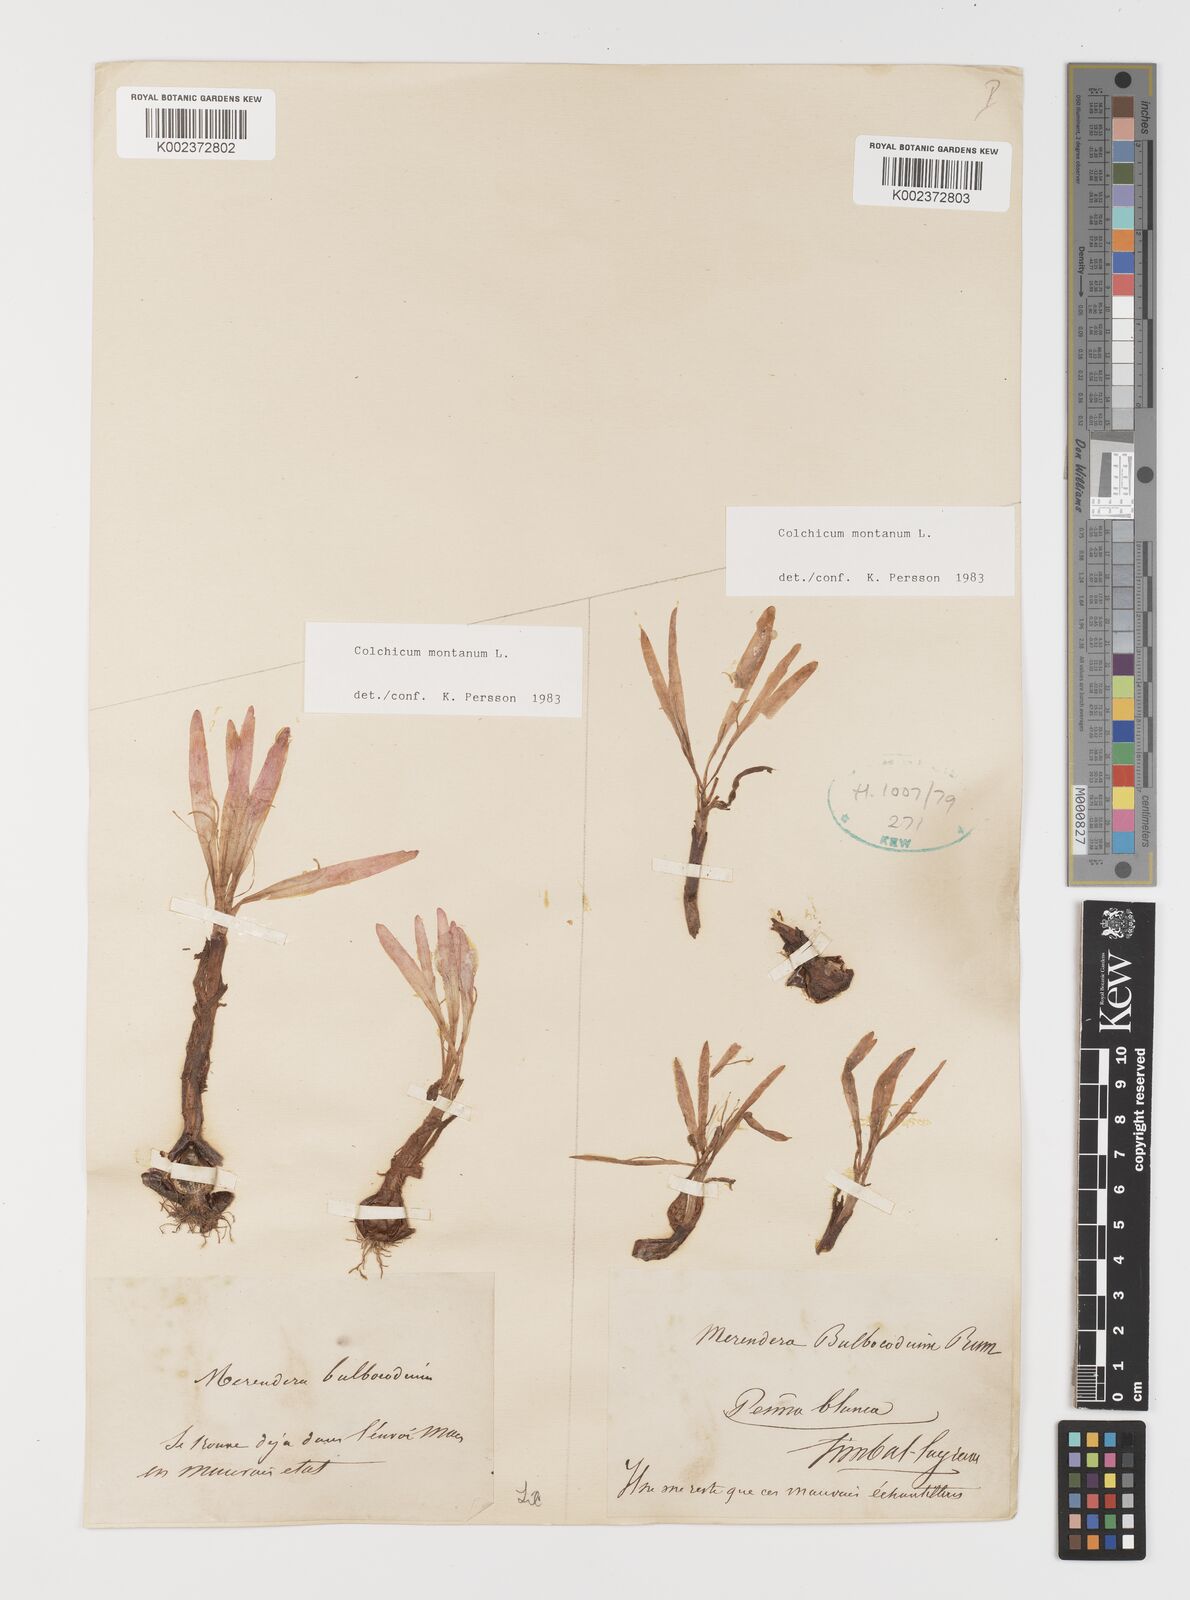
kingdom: Plantae
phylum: Tracheophyta
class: Liliopsida
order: Liliales
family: Colchicaceae
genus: Colchicum
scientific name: Colchicum montanum
